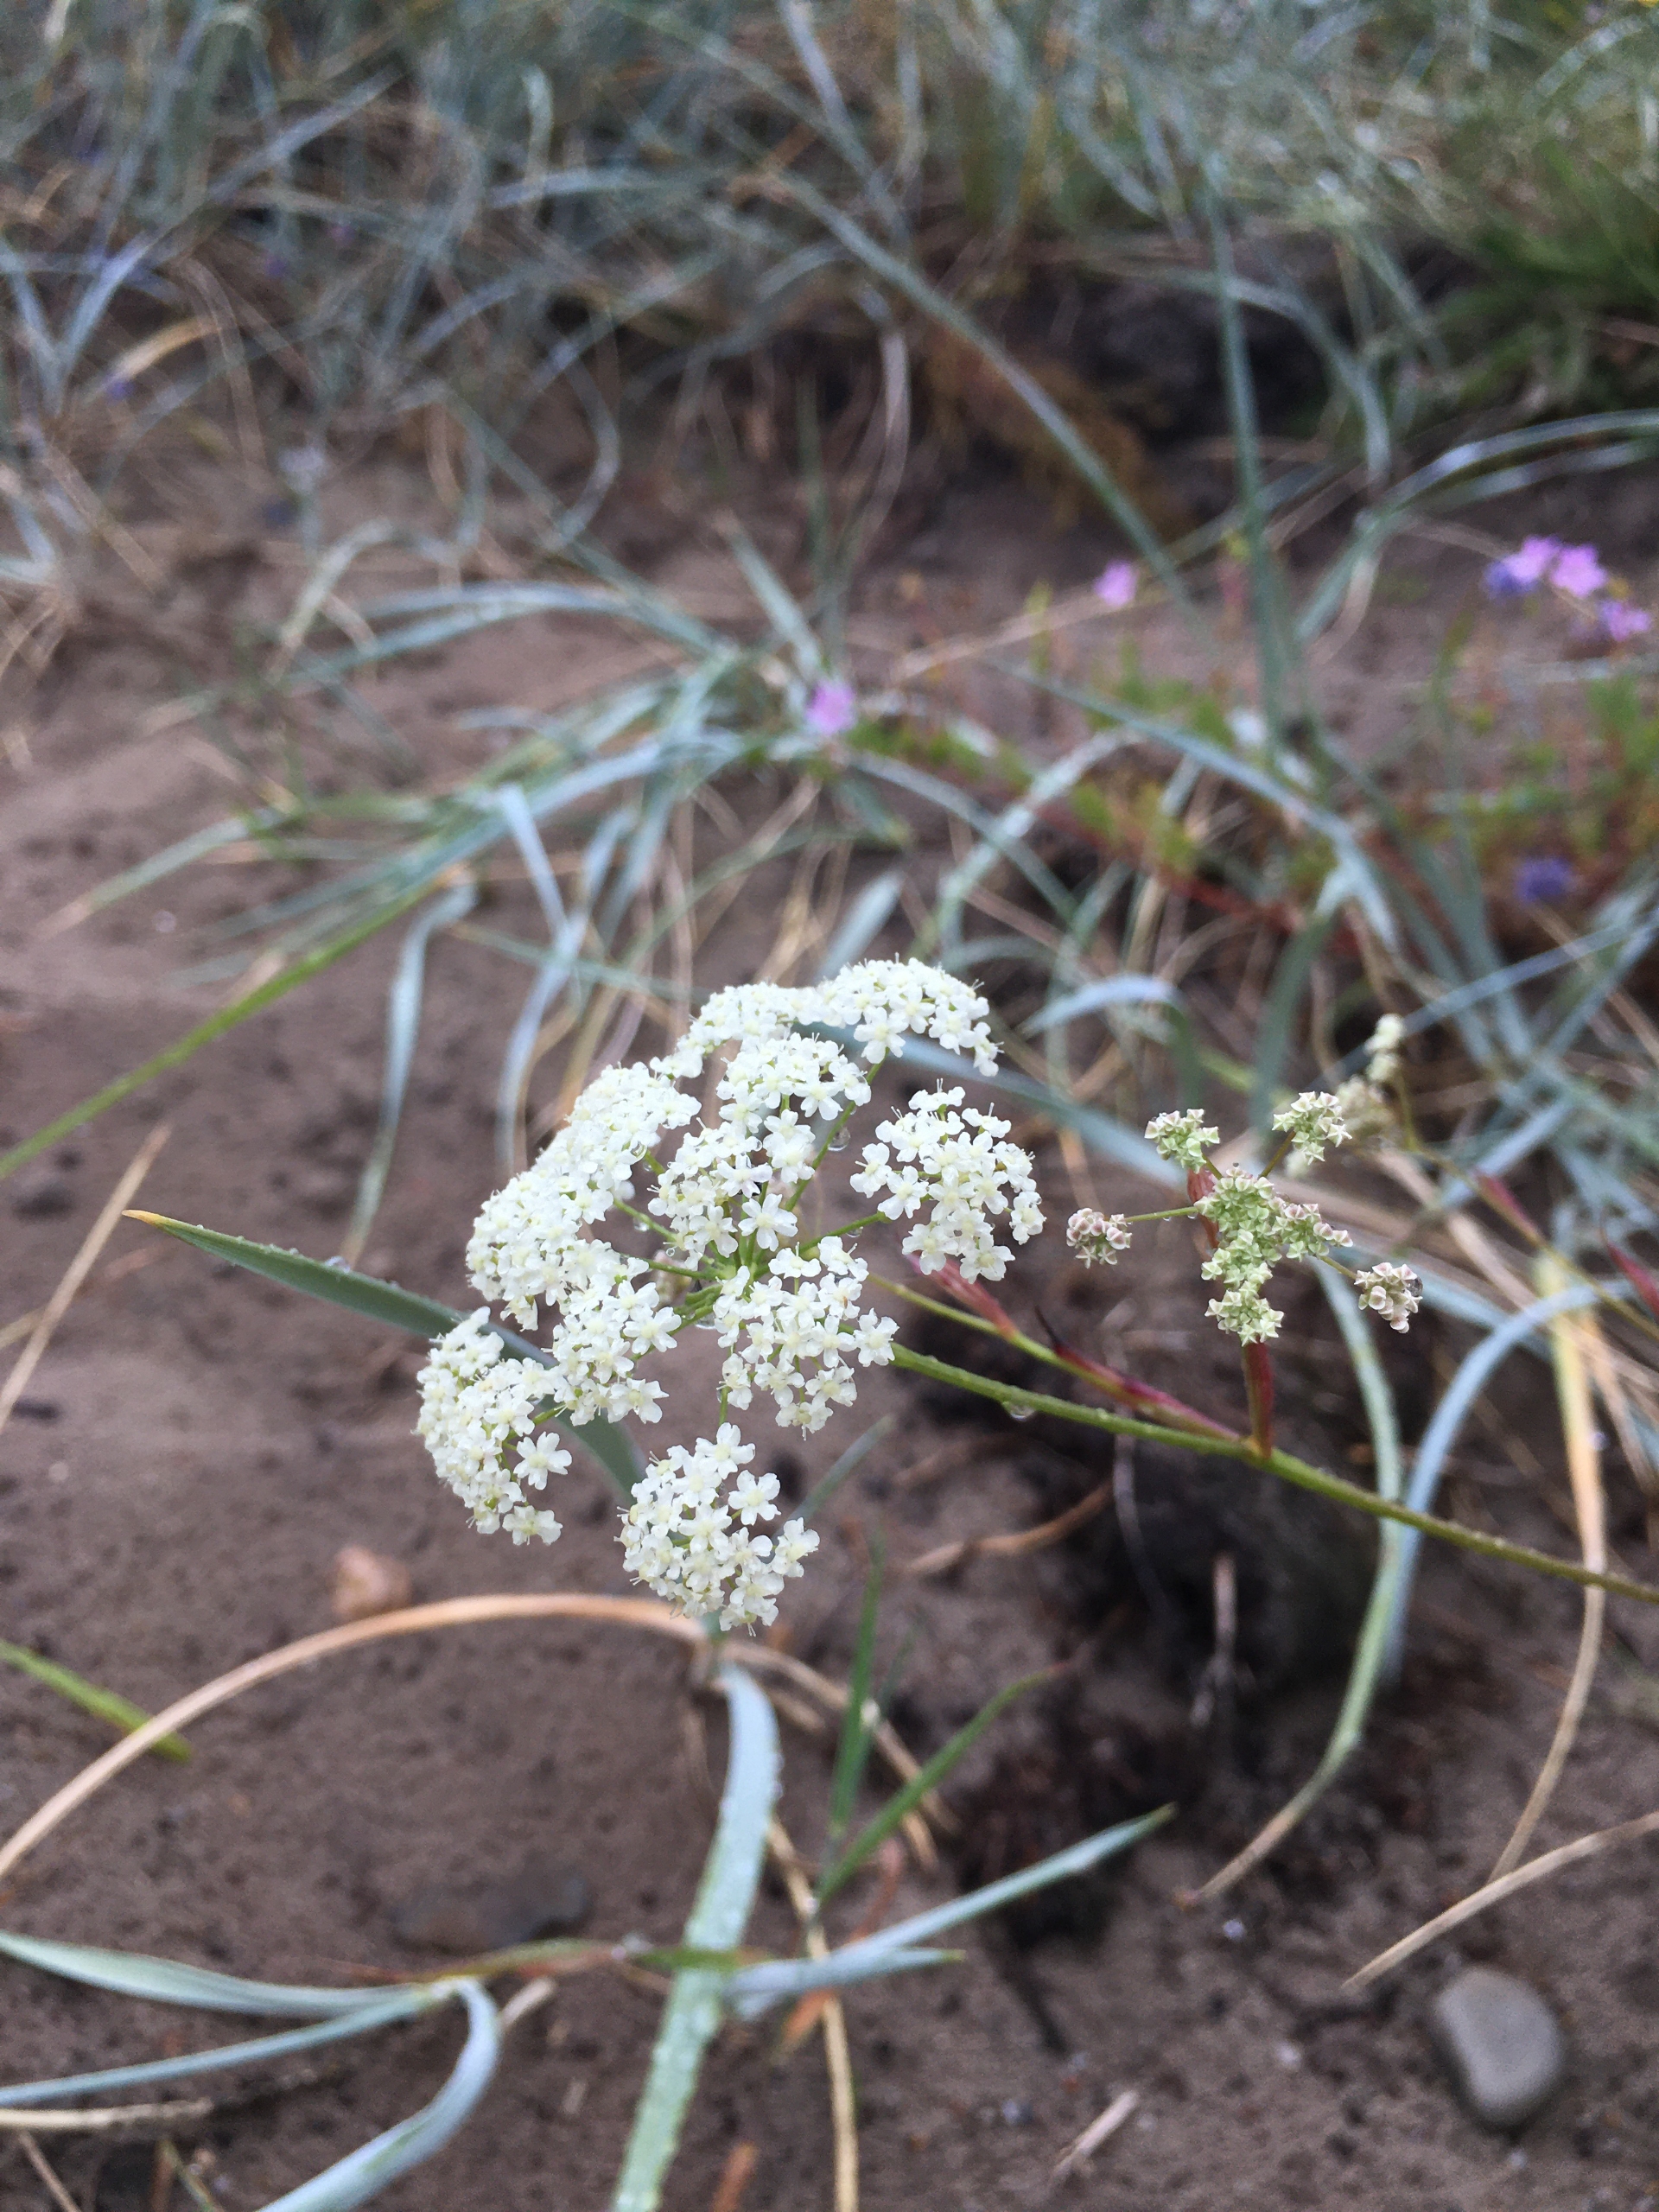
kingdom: Plantae
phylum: Tracheophyta
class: Magnoliopsida
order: Apiales
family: Apiaceae
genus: Pimpinella
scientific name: Pimpinella saxifraga
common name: Almindelig pimpinelle
